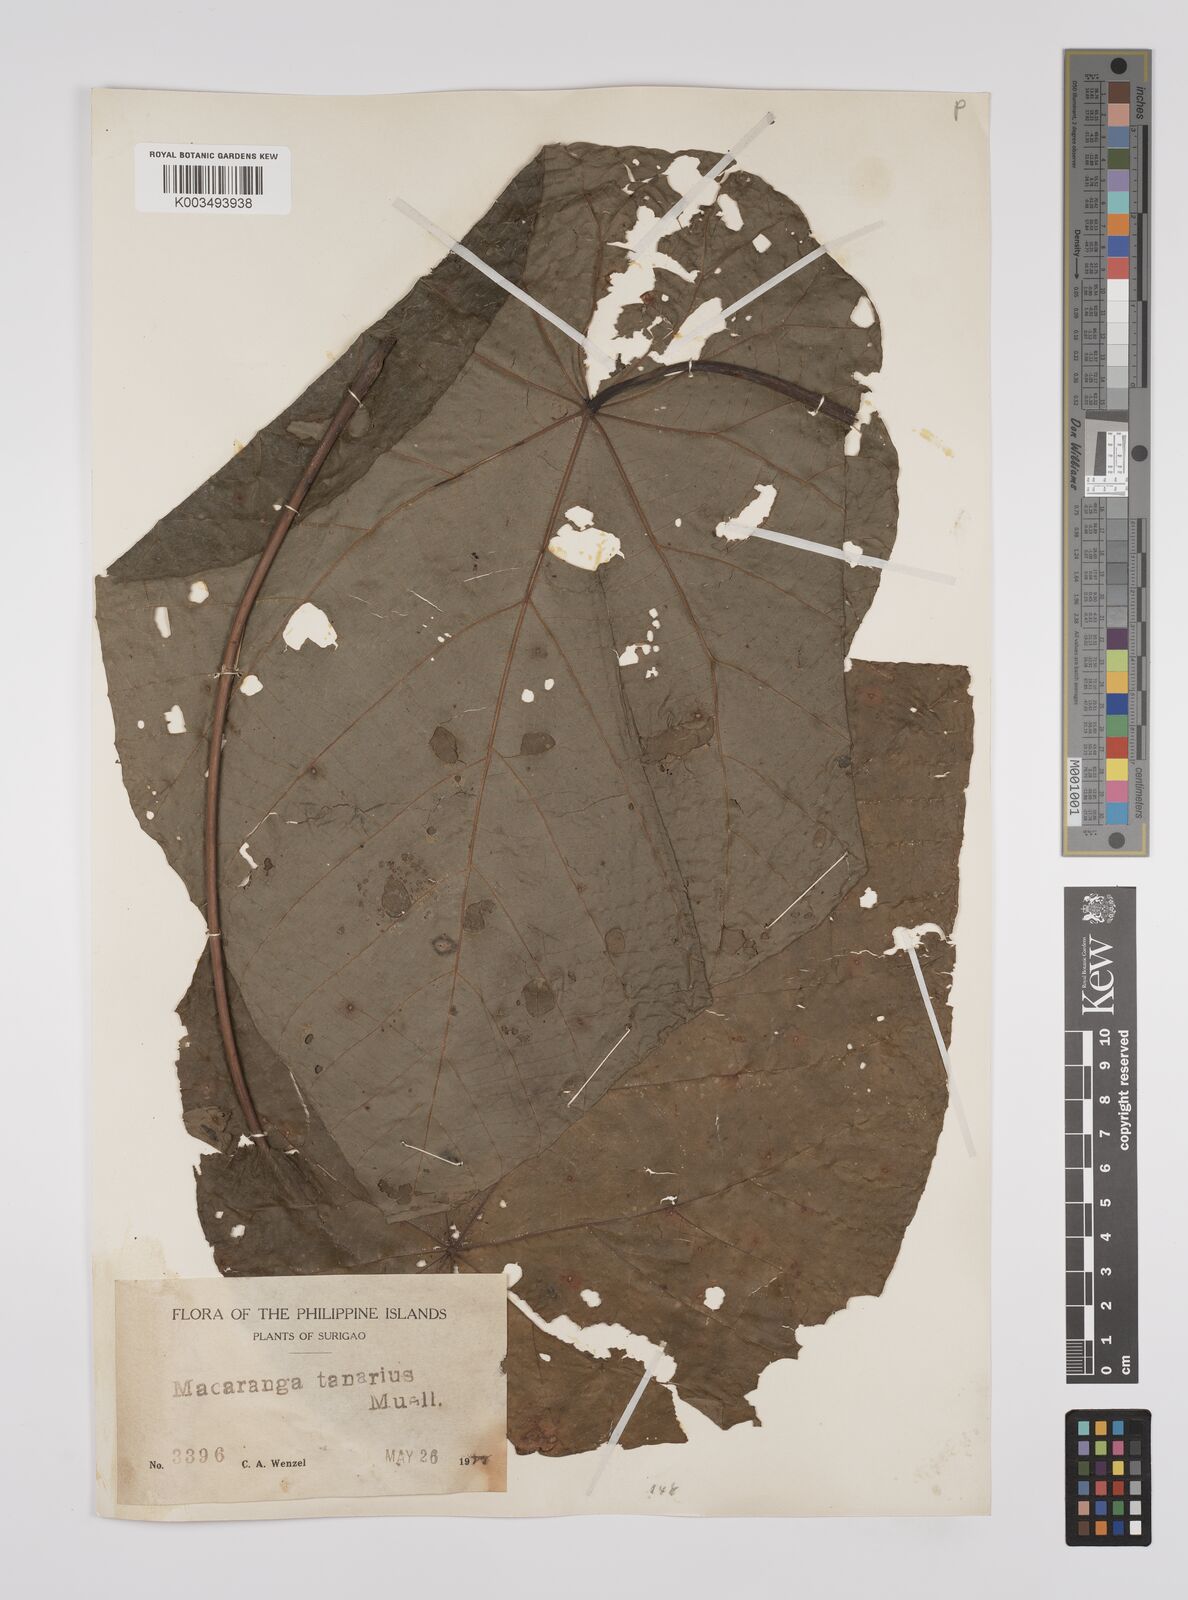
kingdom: Plantae
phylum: Tracheophyta
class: Magnoliopsida
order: Malpighiales
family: Euphorbiaceae
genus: Macaranga
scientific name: Macaranga tanarius
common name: Parasol leaf tree
